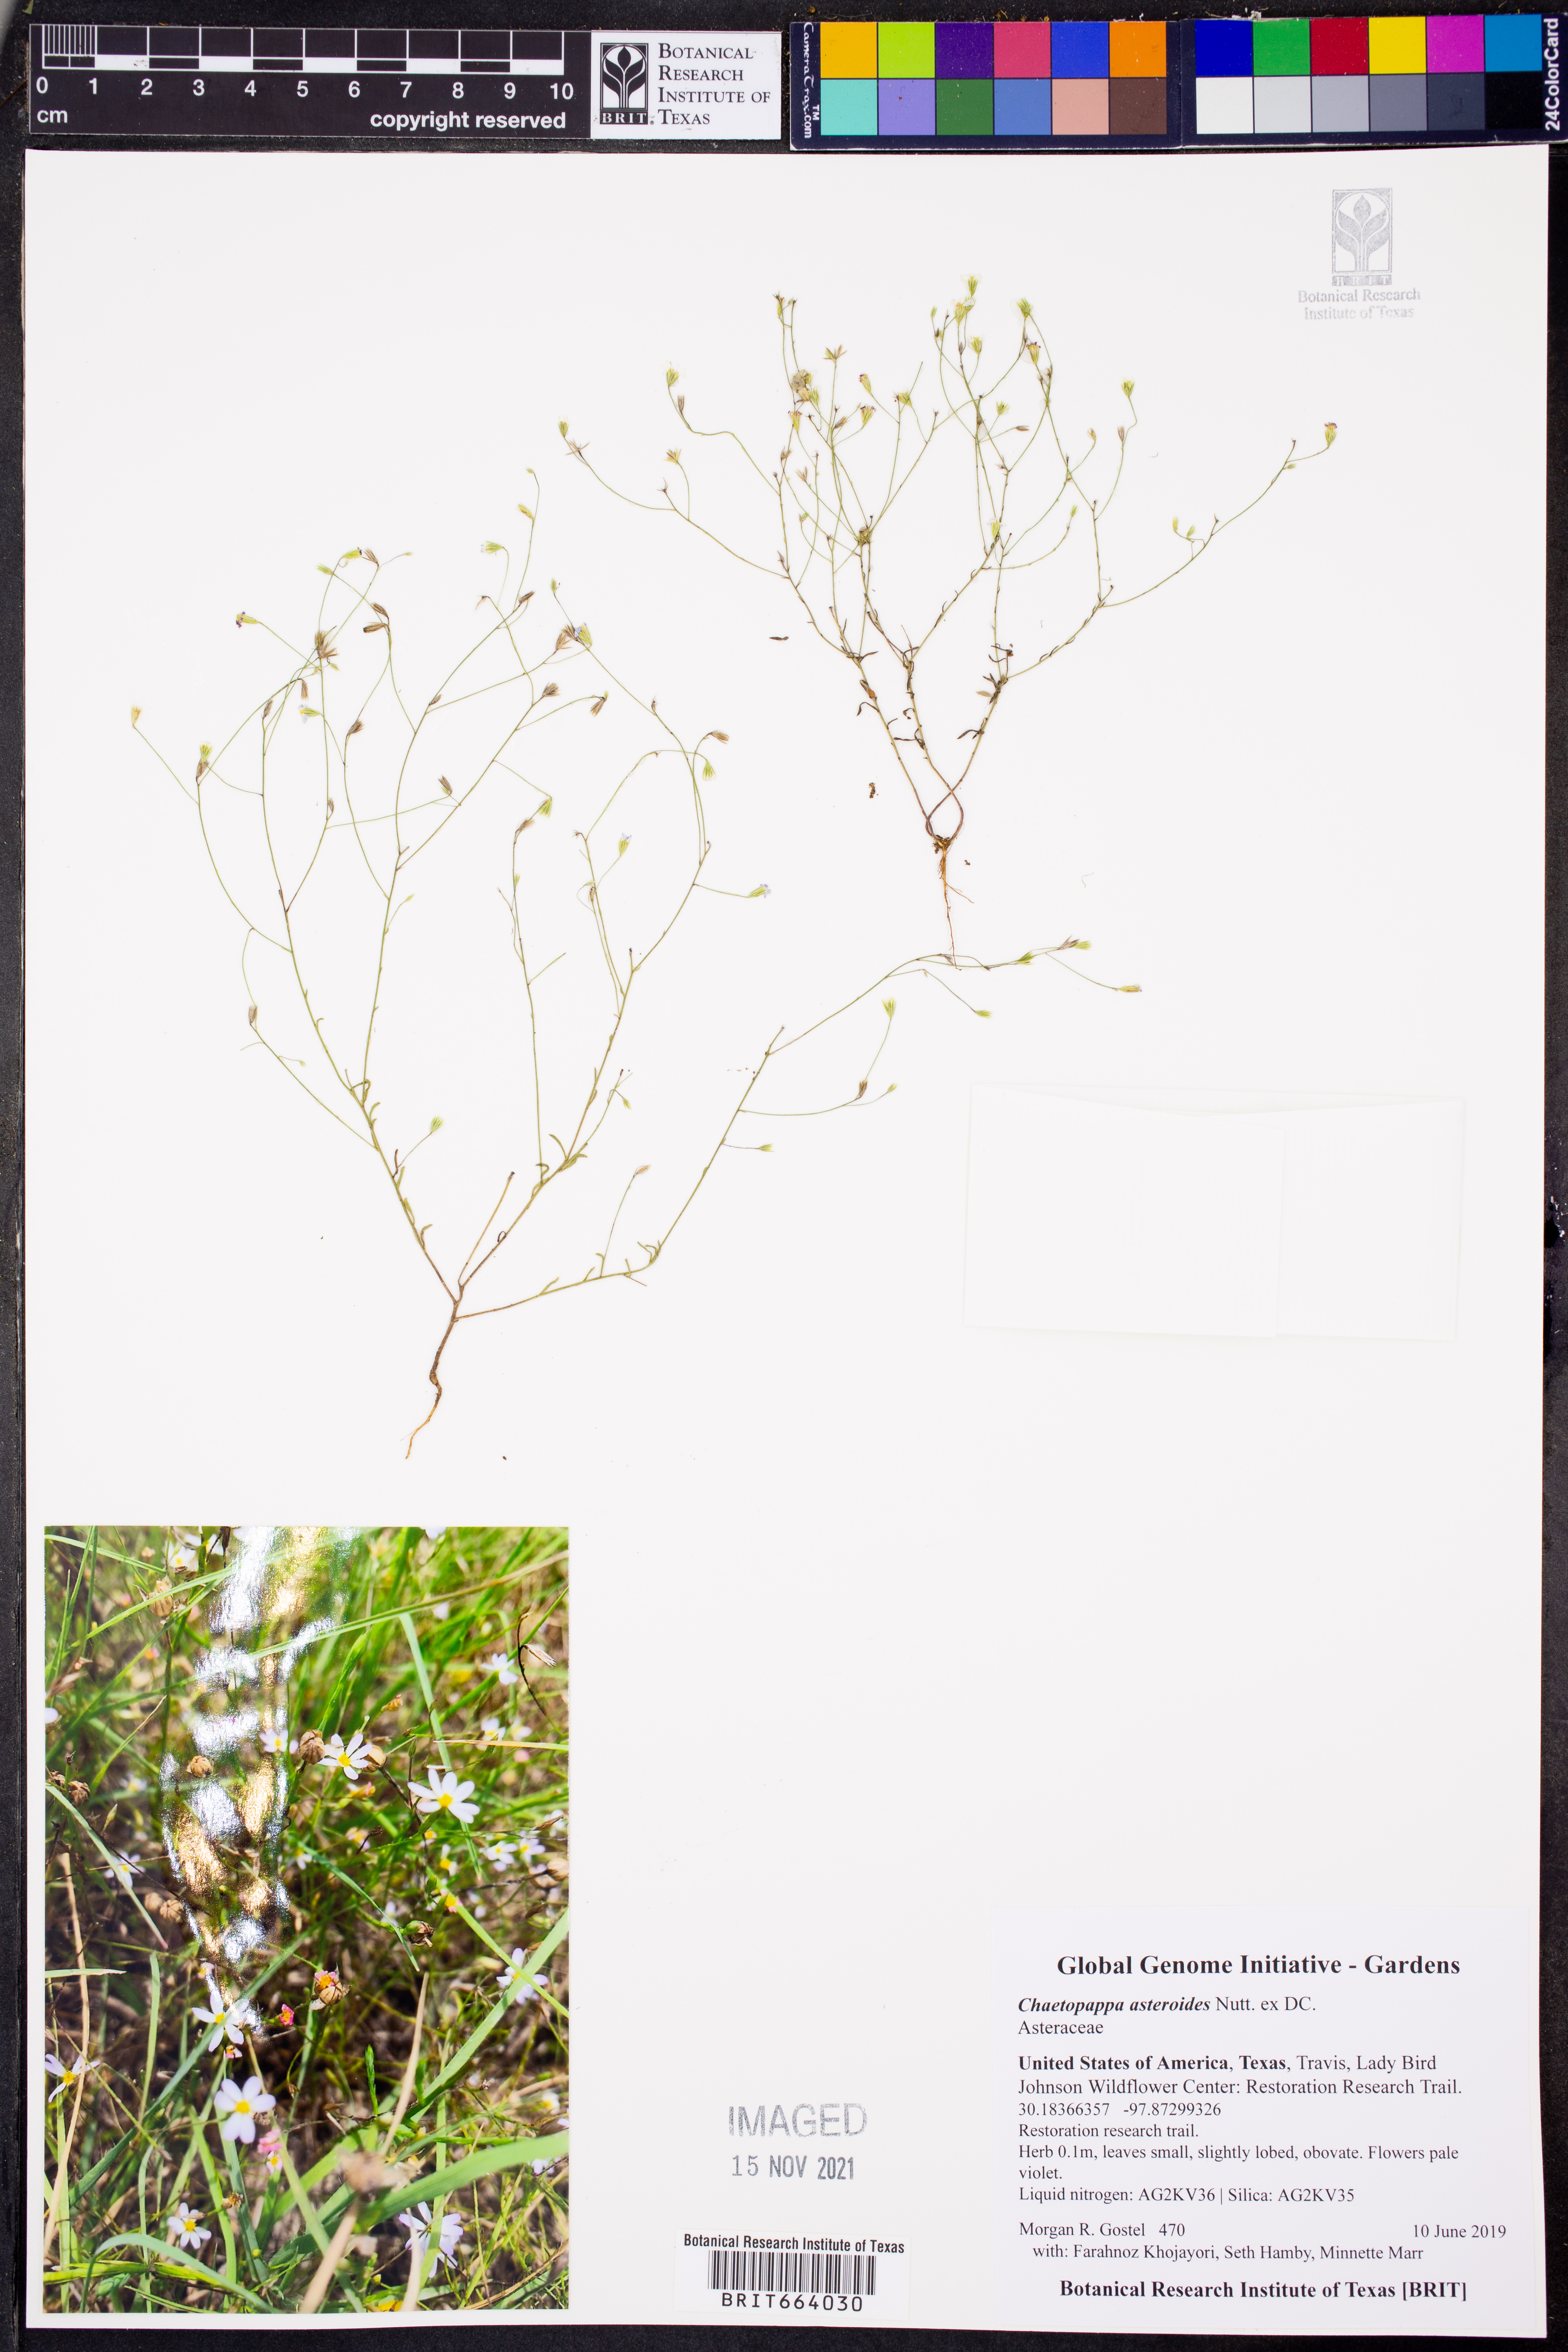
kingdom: Plantae
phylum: Tracheophyta
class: Magnoliopsida
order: Asterales
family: Asteraceae
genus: Chaetopappa
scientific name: Chaetopappa asteroides
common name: Tiny lazy daisy
